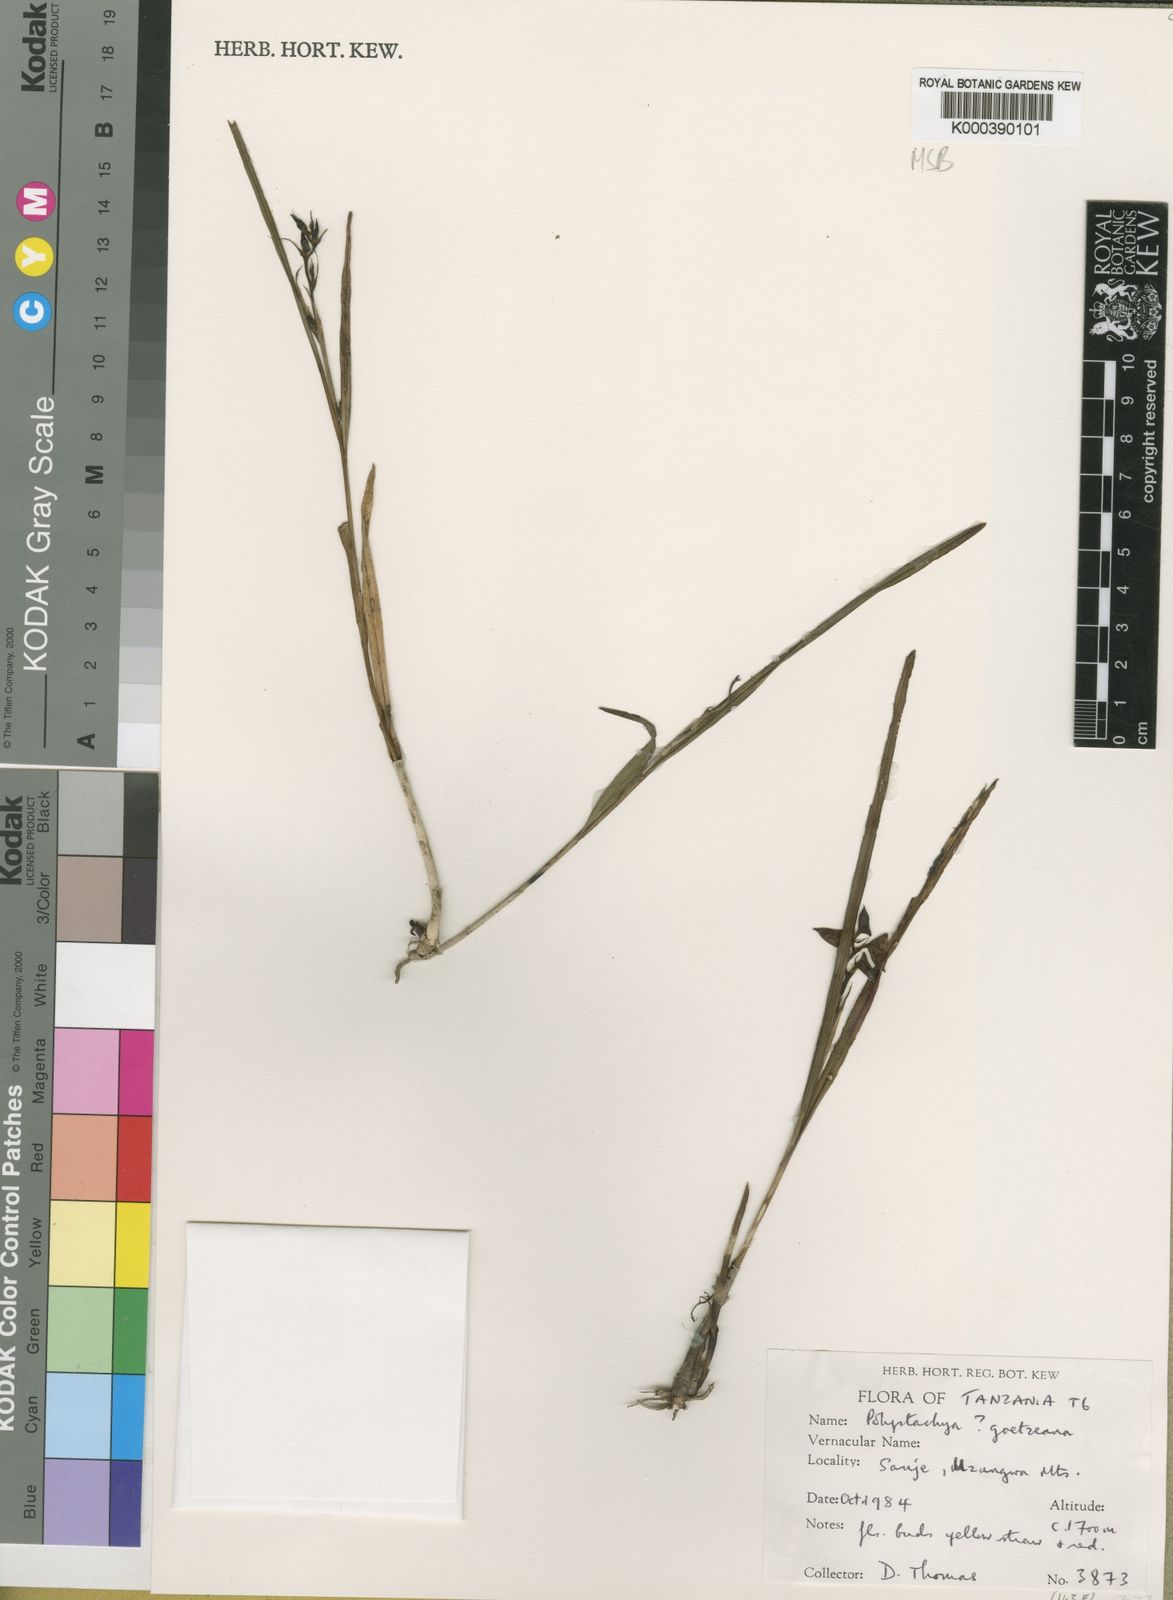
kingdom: Plantae
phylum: Tracheophyta
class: Liliopsida
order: Asparagales
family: Orchidaceae
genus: Polystachya
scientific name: Polystachya goetzeana
